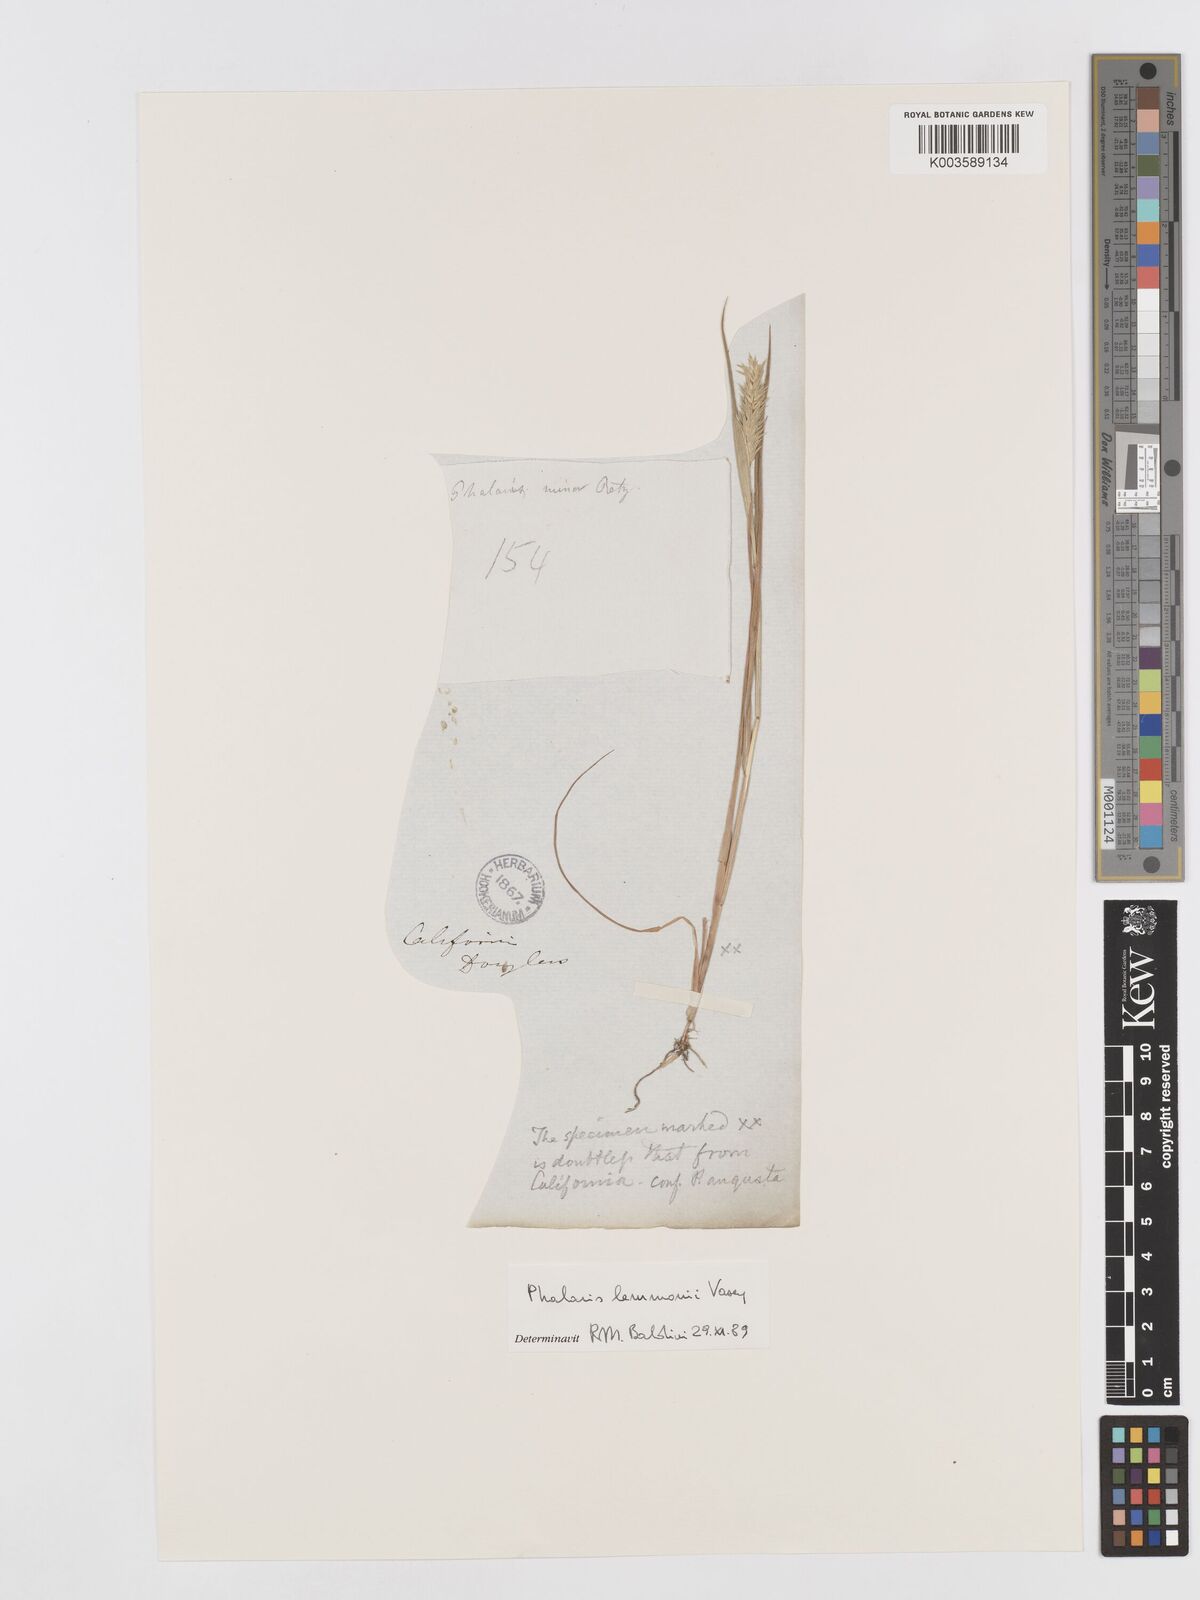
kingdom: Plantae
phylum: Tracheophyta
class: Liliopsida
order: Poales
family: Poaceae
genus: Phalaris
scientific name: Phalaris lemmonii
